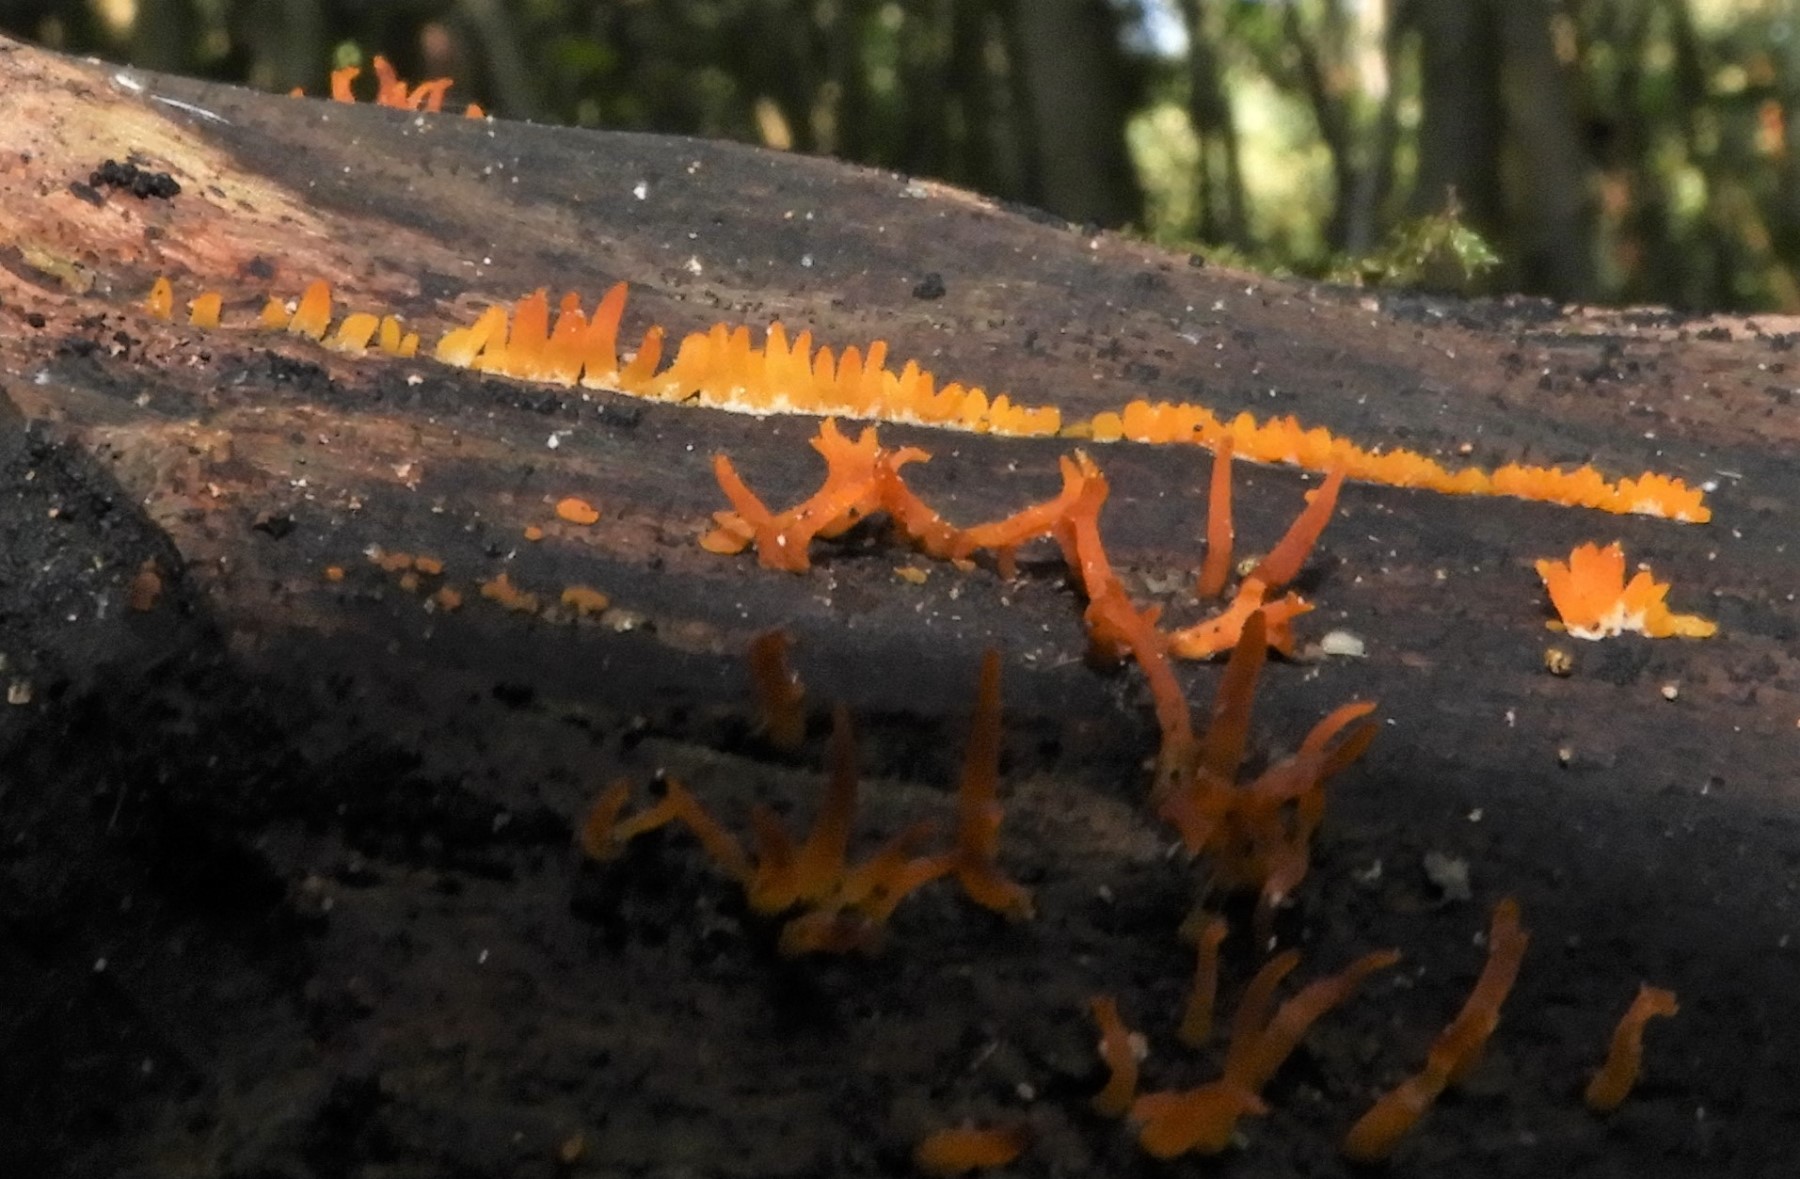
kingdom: Fungi
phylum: Basidiomycota
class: Dacrymycetes
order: Dacrymycetales
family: Dacrymycetaceae
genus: Calocera
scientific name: Calocera cornea
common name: liden guldgaffel
